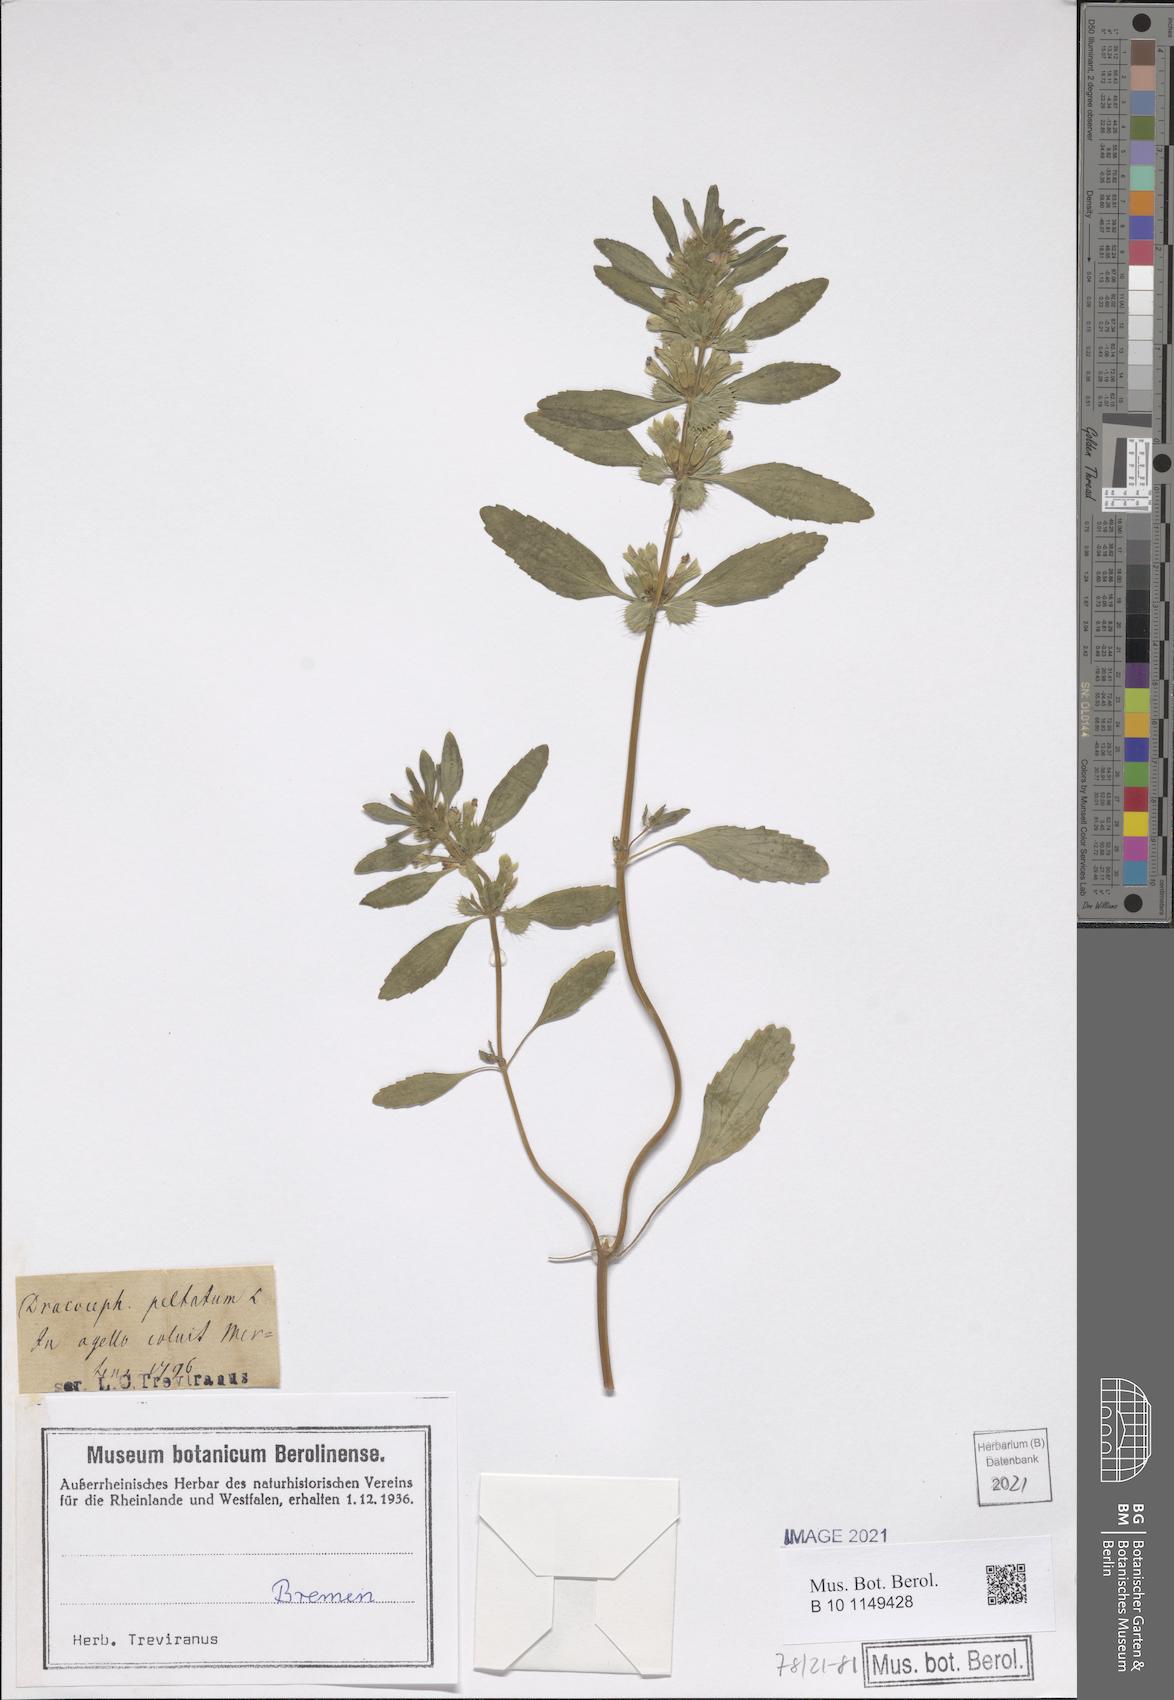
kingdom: Plantae
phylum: Tracheophyta
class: Magnoliopsida
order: Lamiales
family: Lamiaceae
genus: Lallemantia
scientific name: Lallemantia peltata
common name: Lion's heart
